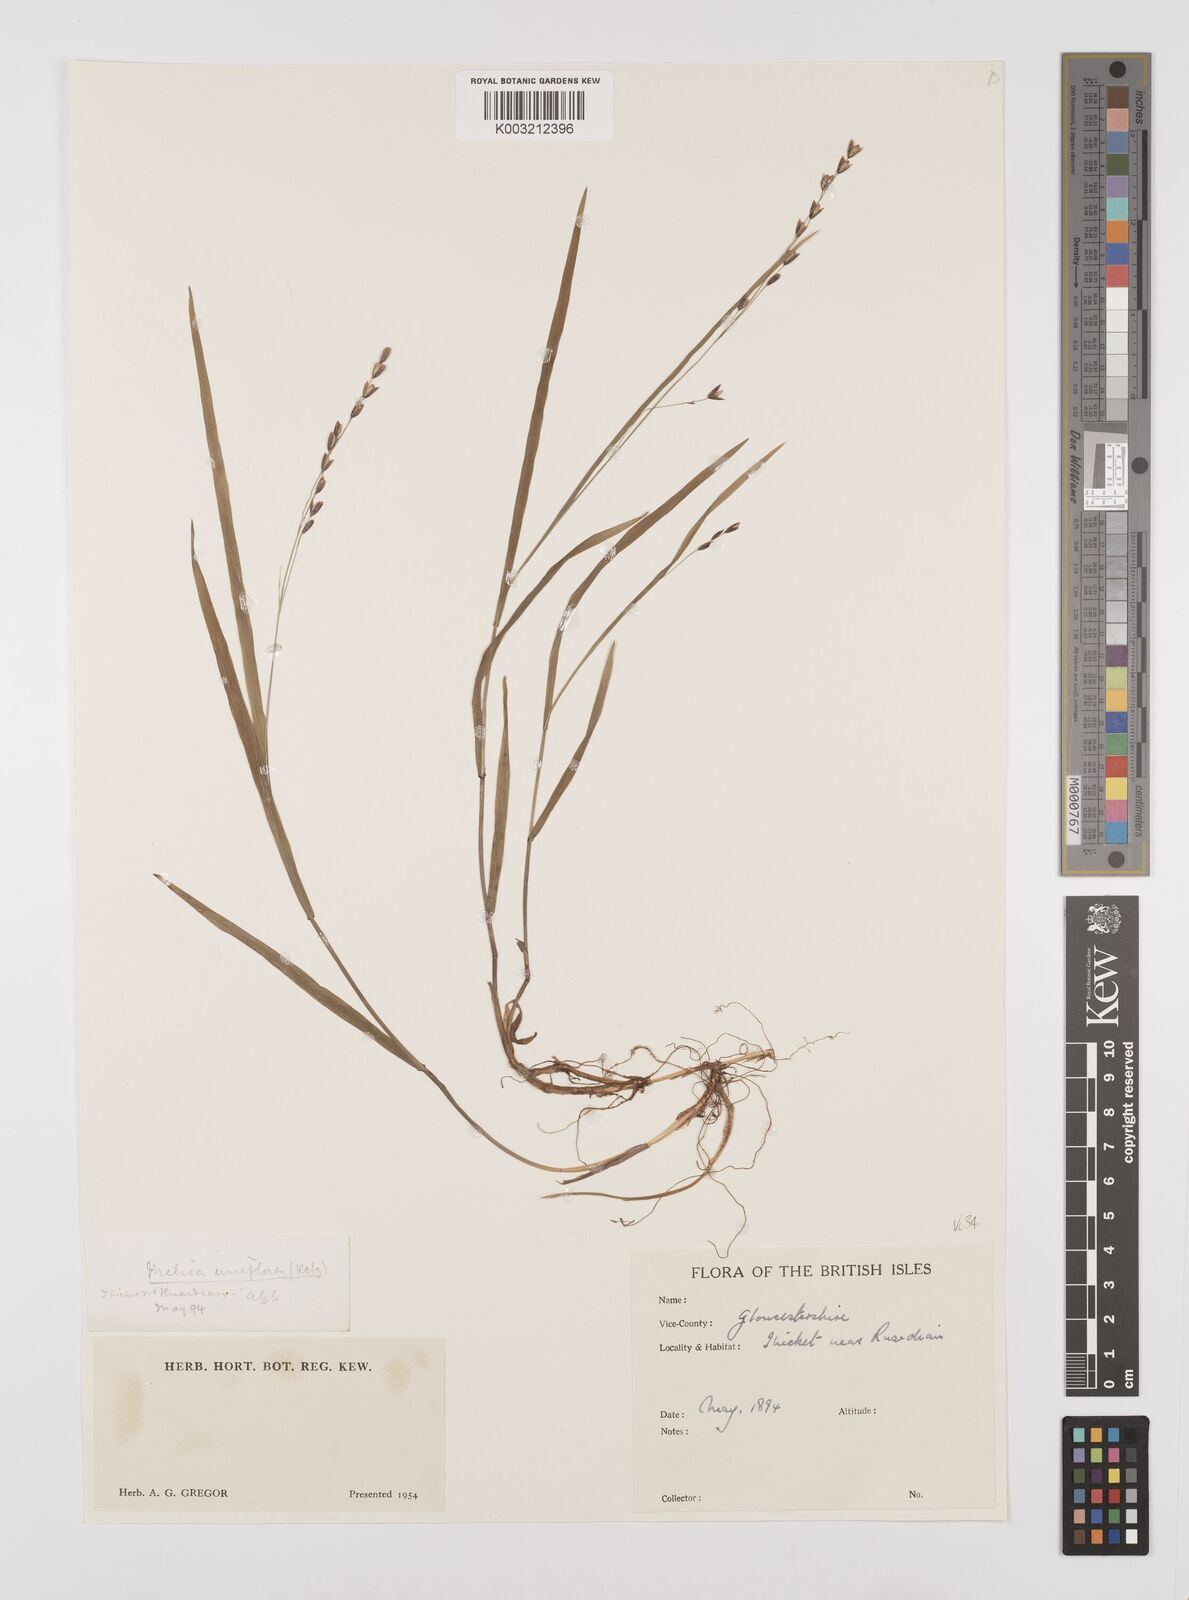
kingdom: Plantae
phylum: Tracheophyta
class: Liliopsida
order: Poales
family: Poaceae
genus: Melica
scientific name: Melica uniflora
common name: Wood melick
